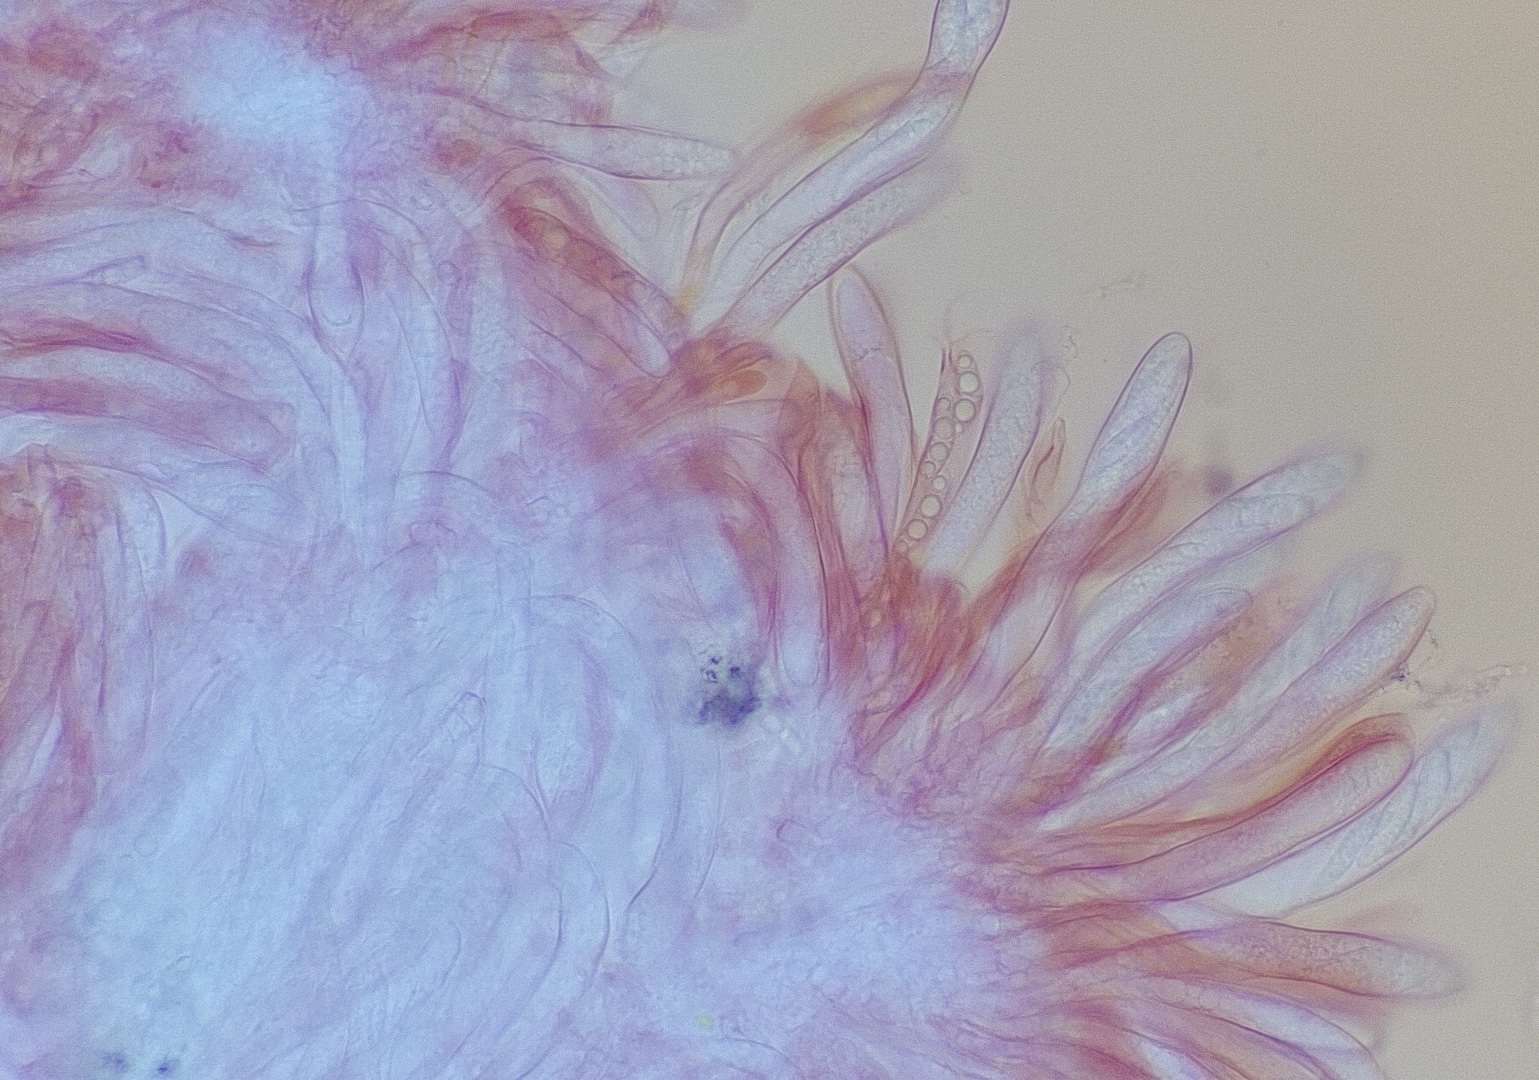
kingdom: Fungi
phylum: Ascomycota
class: Leotiomycetes
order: Helotiales
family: Hyaloscyphaceae
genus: Polydesmia
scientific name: Polydesmia pruinosa
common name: dunskive
